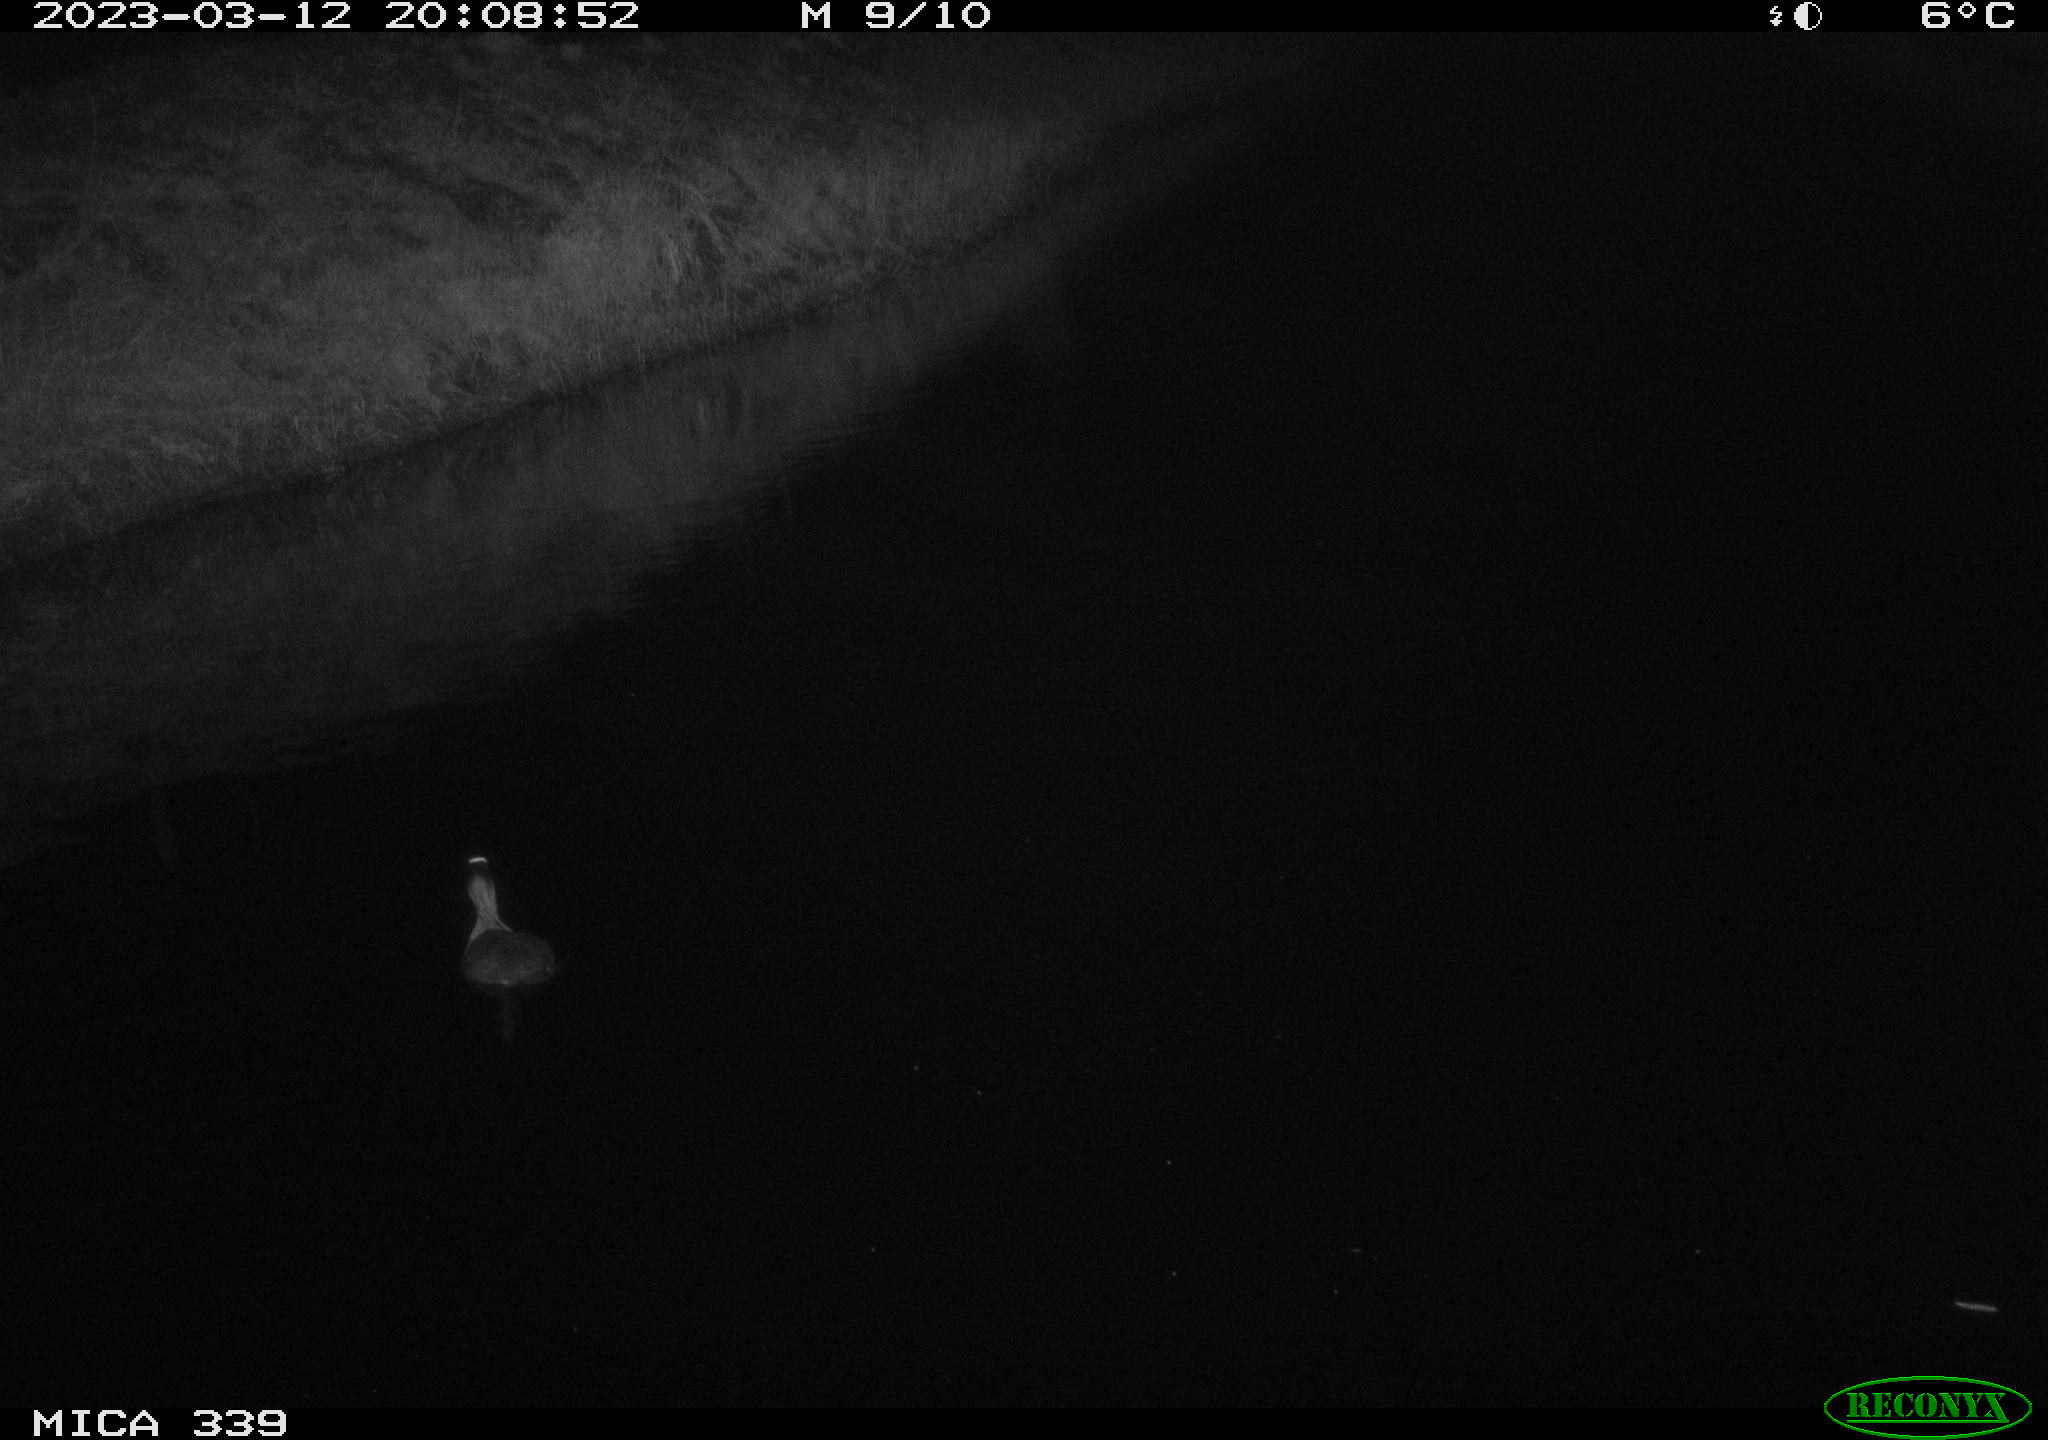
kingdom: Animalia
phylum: Chordata
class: Aves
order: Gruiformes
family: Rallidae
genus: Fulica
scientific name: Fulica atra
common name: Eurasian coot
